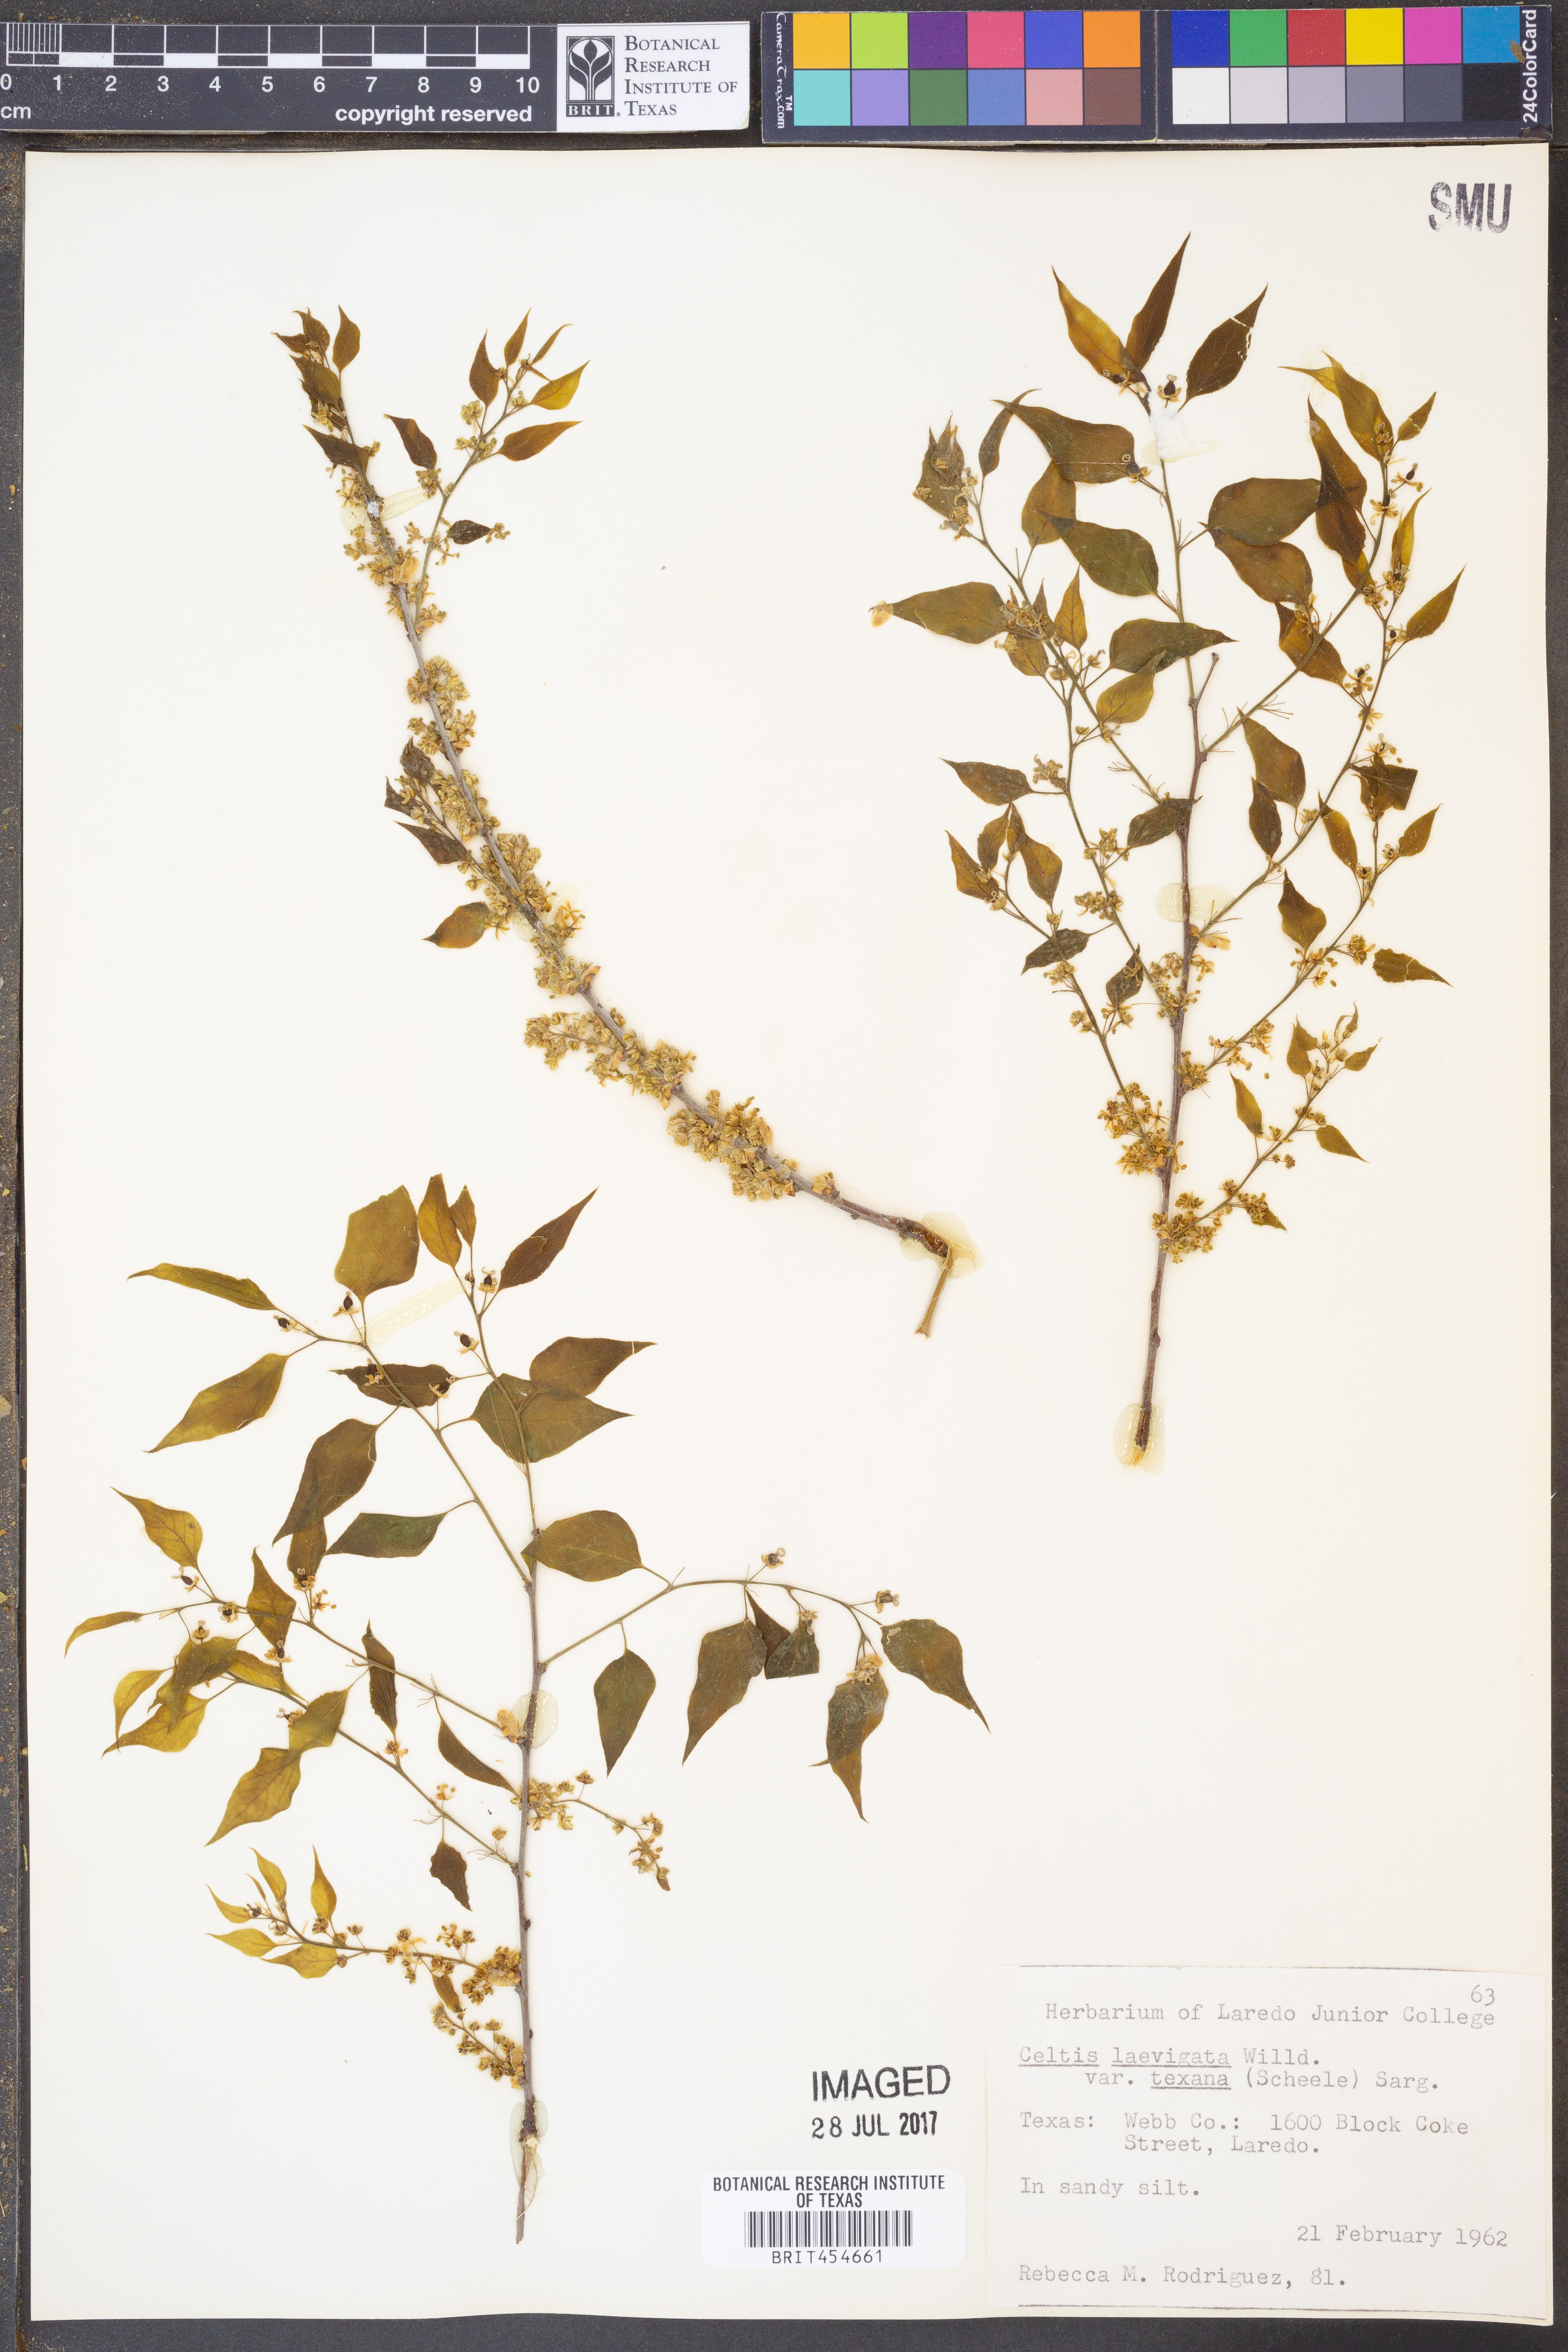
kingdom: Plantae
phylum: Tracheophyta
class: Magnoliopsida
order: Rosales
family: Cannabaceae
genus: Celtis
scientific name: Celtis laevigata
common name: Sugarberry
